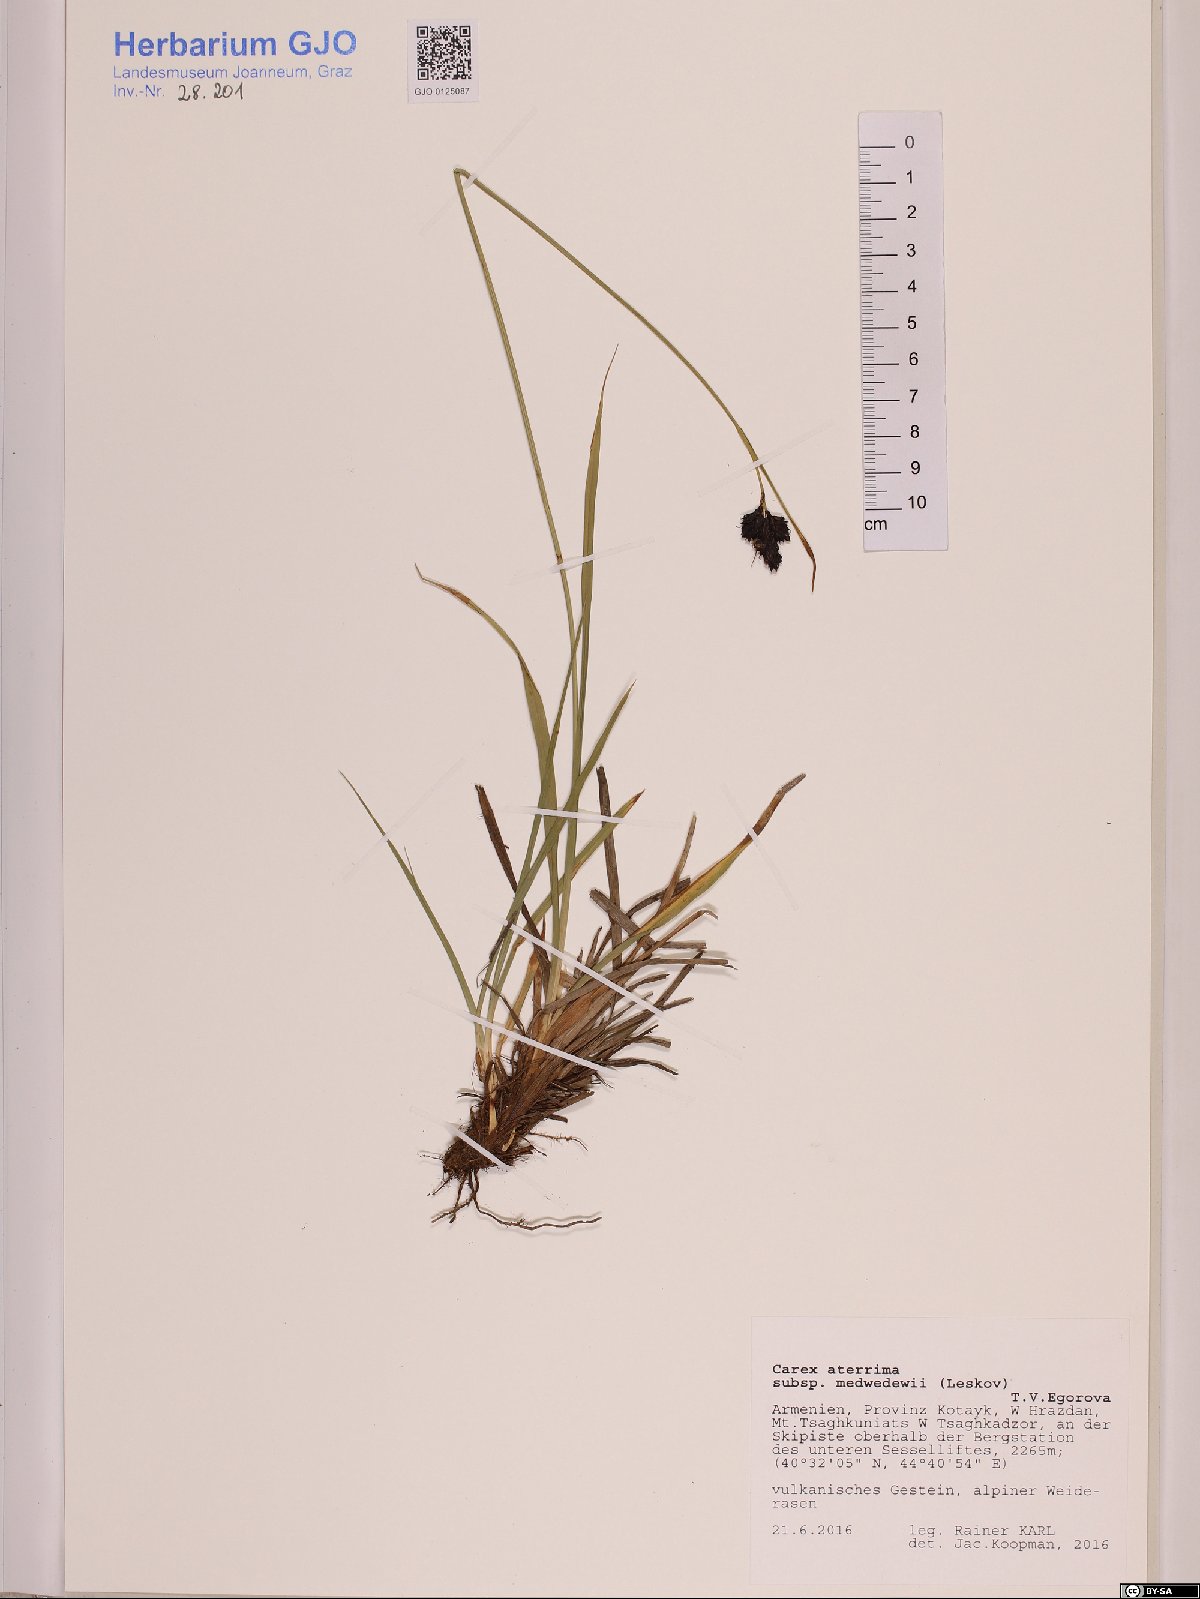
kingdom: Plantae
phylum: Tracheophyta
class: Liliopsida
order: Poales
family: Cyperaceae
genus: Carex
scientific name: Carex aterrima
